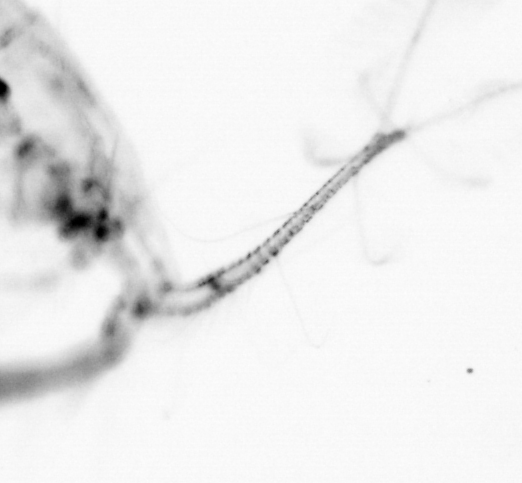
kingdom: Animalia
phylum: Arthropoda
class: Copepoda
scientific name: Copepoda
